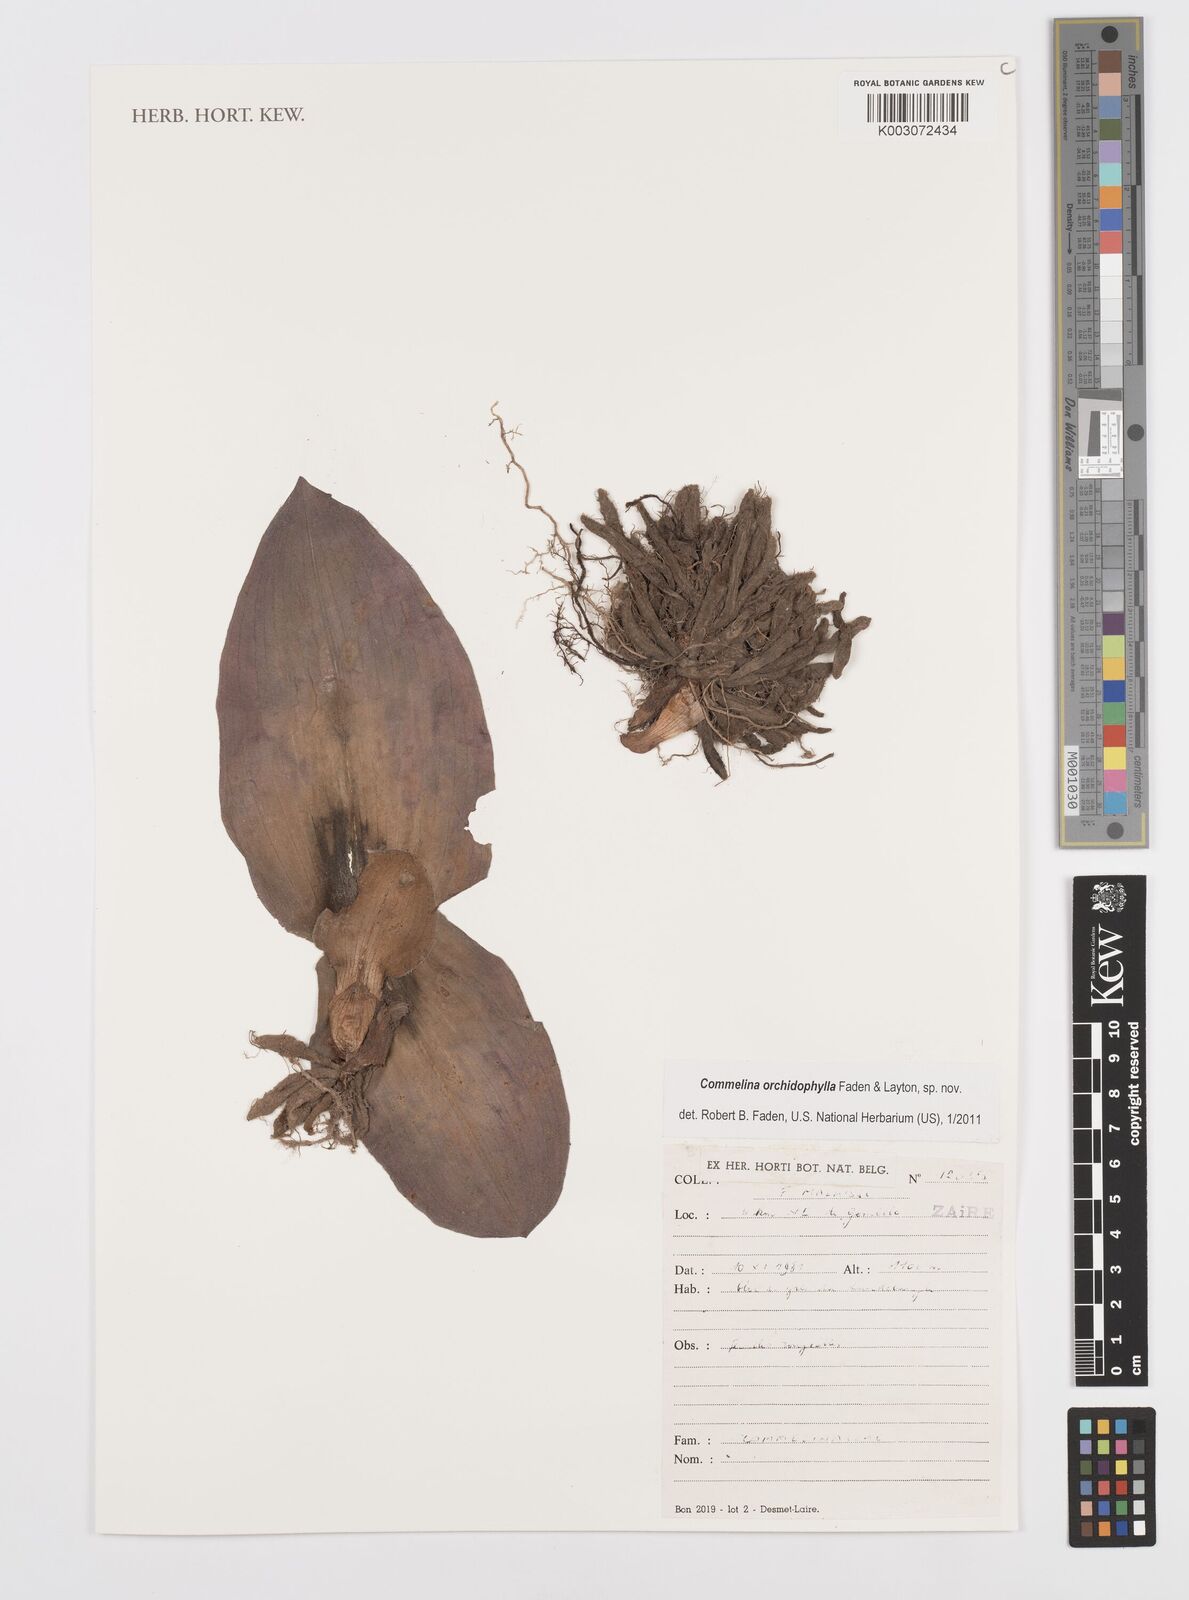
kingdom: Plantae
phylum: Tracheophyta
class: Liliopsida
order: Commelinales
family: Commelinaceae
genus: Commelina
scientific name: Commelina orchidophylla
